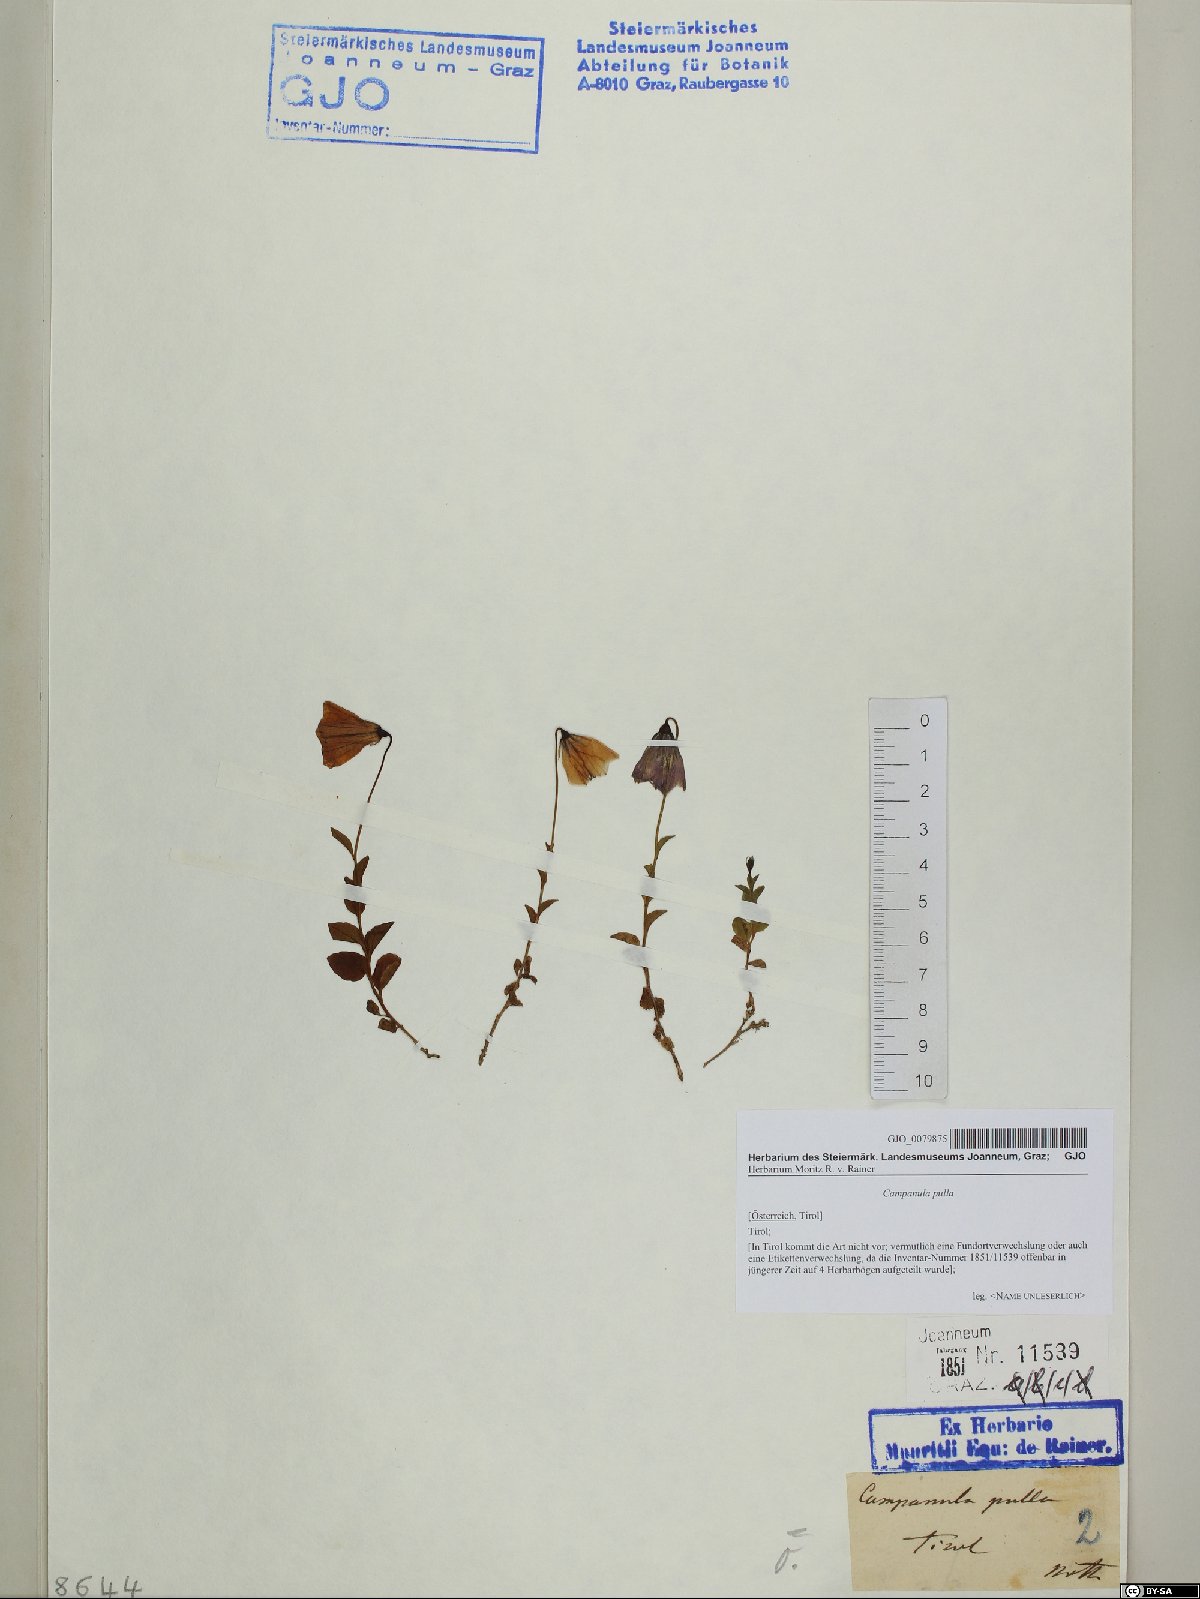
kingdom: Plantae
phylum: Tracheophyta
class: Magnoliopsida
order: Asterales
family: Campanulaceae
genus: Campanula
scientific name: Campanula pulla
